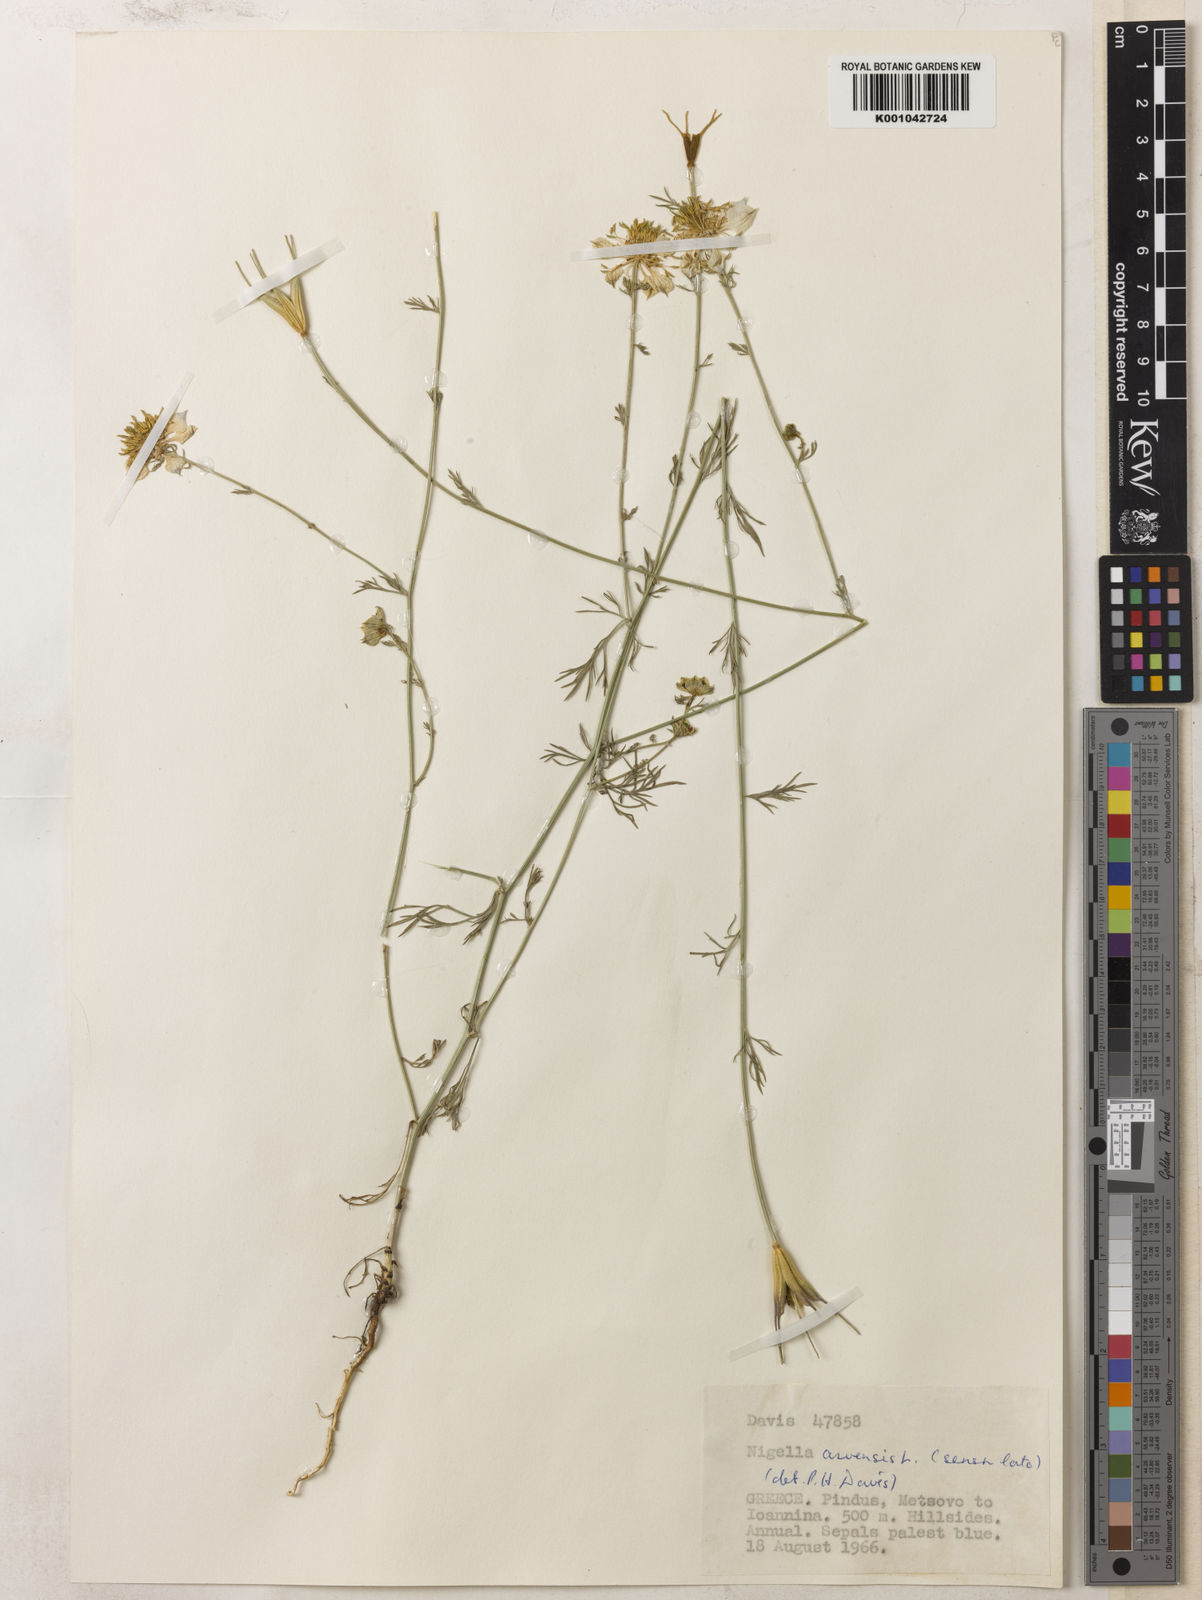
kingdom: Plantae
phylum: Tracheophyta
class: Magnoliopsida
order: Ranunculales
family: Ranunculaceae
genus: Nigella
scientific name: Nigella arvensis
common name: Wild fennel-flower
